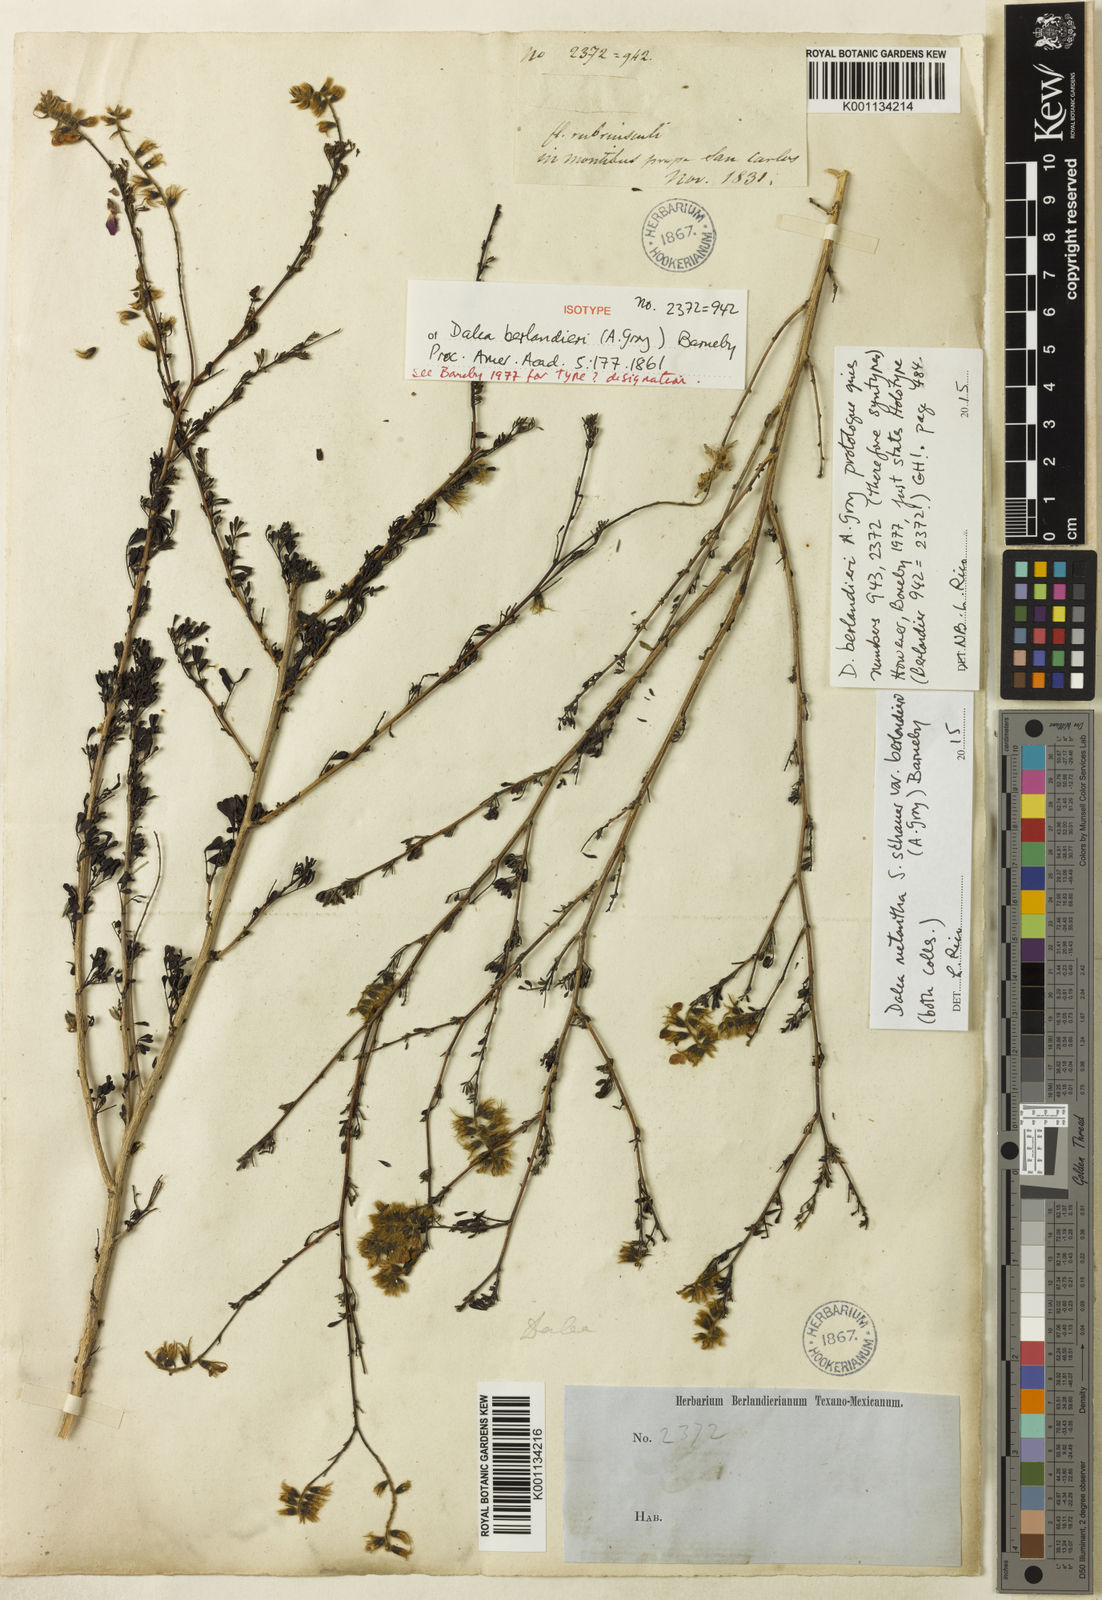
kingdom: Plantae
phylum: Tracheophyta
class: Magnoliopsida
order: Fabales
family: Fabaceae
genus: Dalea
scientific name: Dalea melantha
